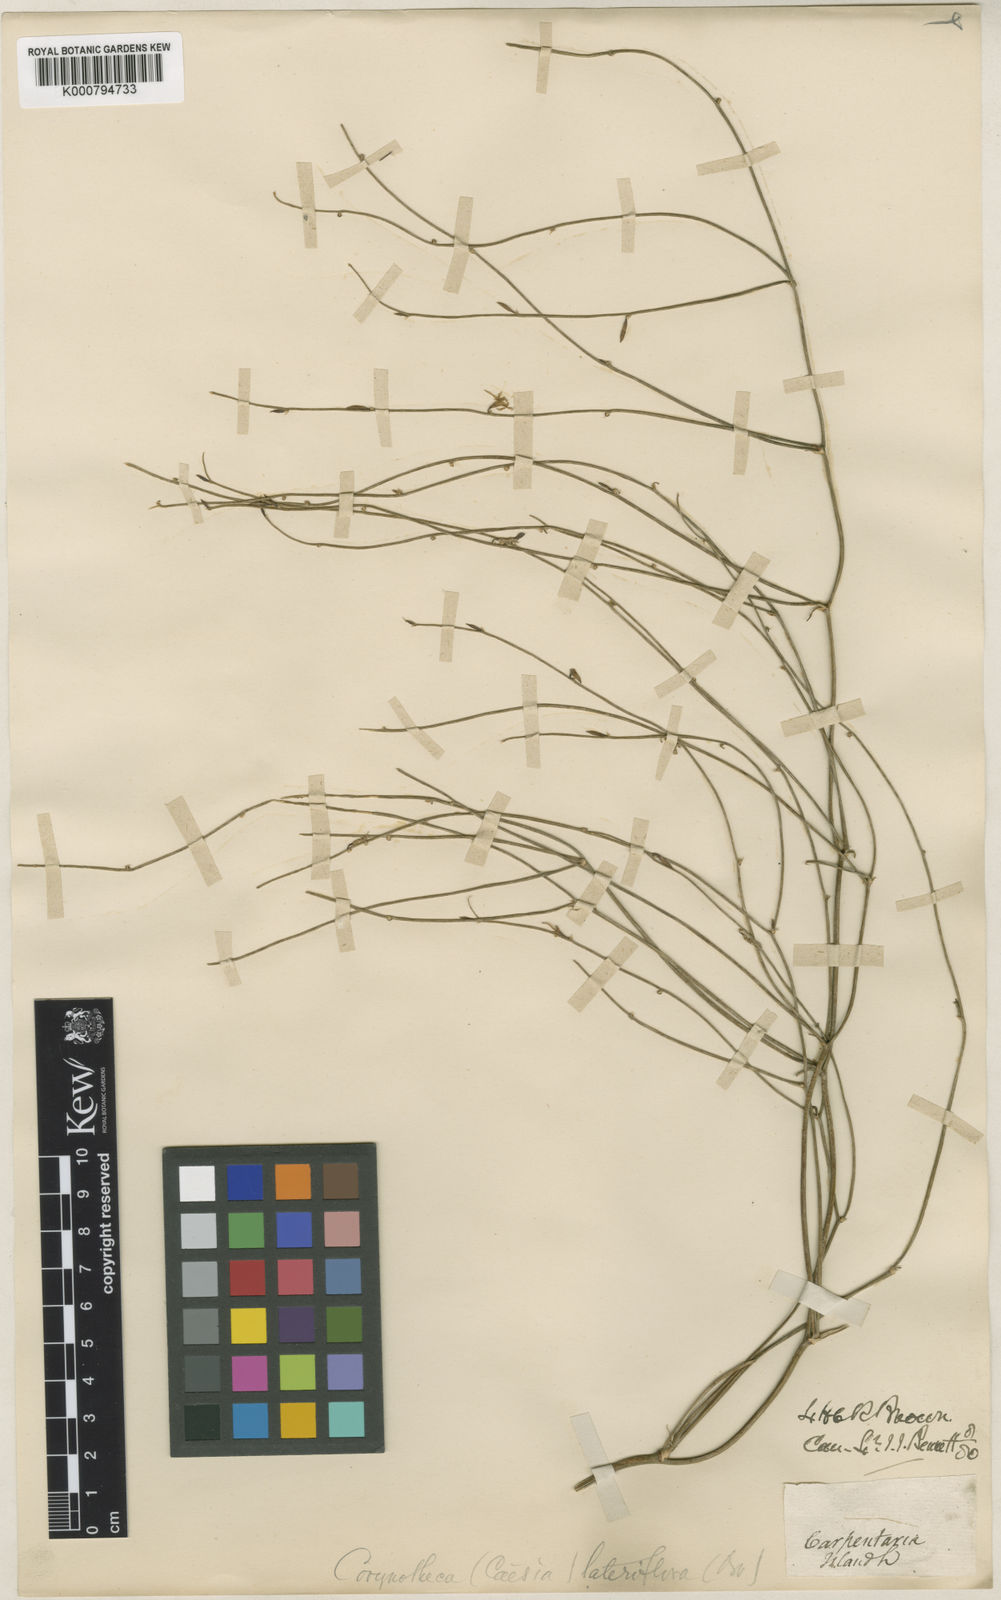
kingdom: Plantae
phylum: Tracheophyta
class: Liliopsida
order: Asparagales
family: Asphodelaceae
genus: Corynotheca
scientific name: Corynotheca lateriflora
